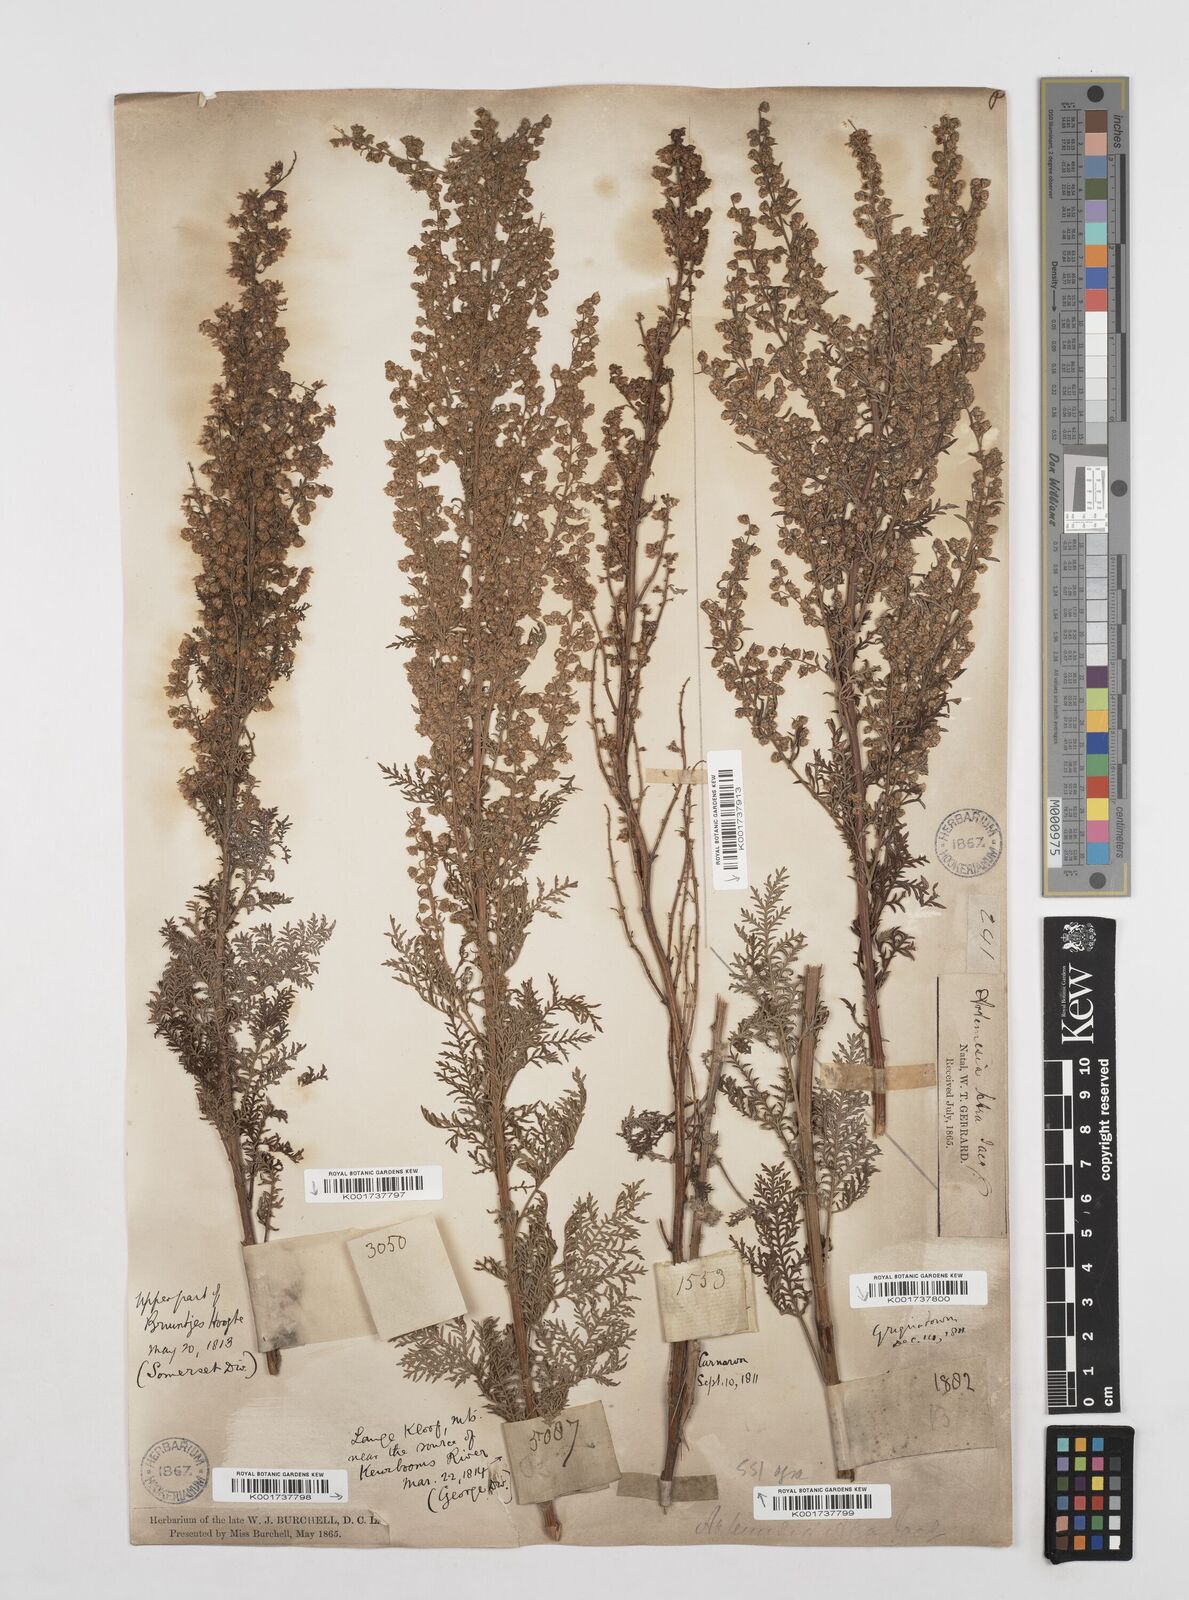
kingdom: Plantae
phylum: Tracheophyta
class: Magnoliopsida
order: Asterales
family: Asteraceae
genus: Artemisia
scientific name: Artemisia afra
